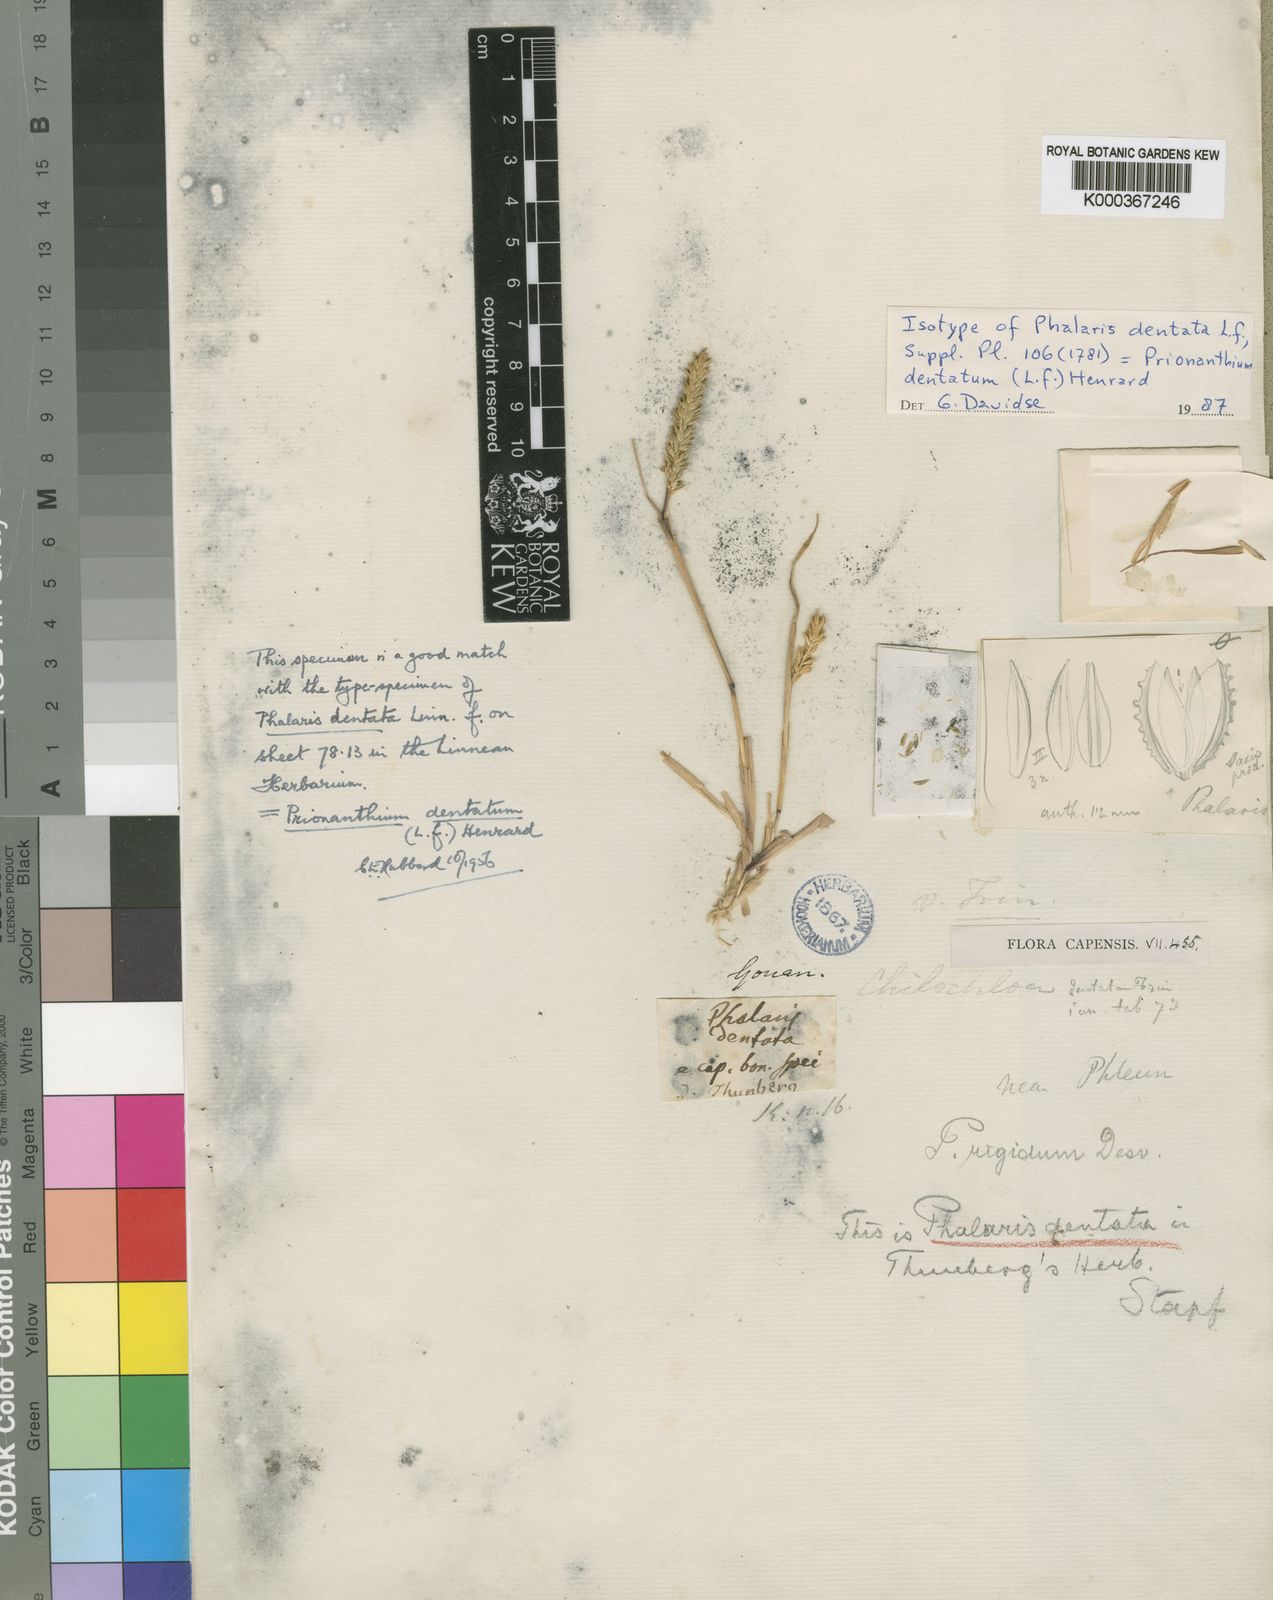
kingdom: Plantae
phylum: Tracheophyta
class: Liliopsida
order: Poales
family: Poaceae
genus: Pentameris
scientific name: Pentameris dentata
